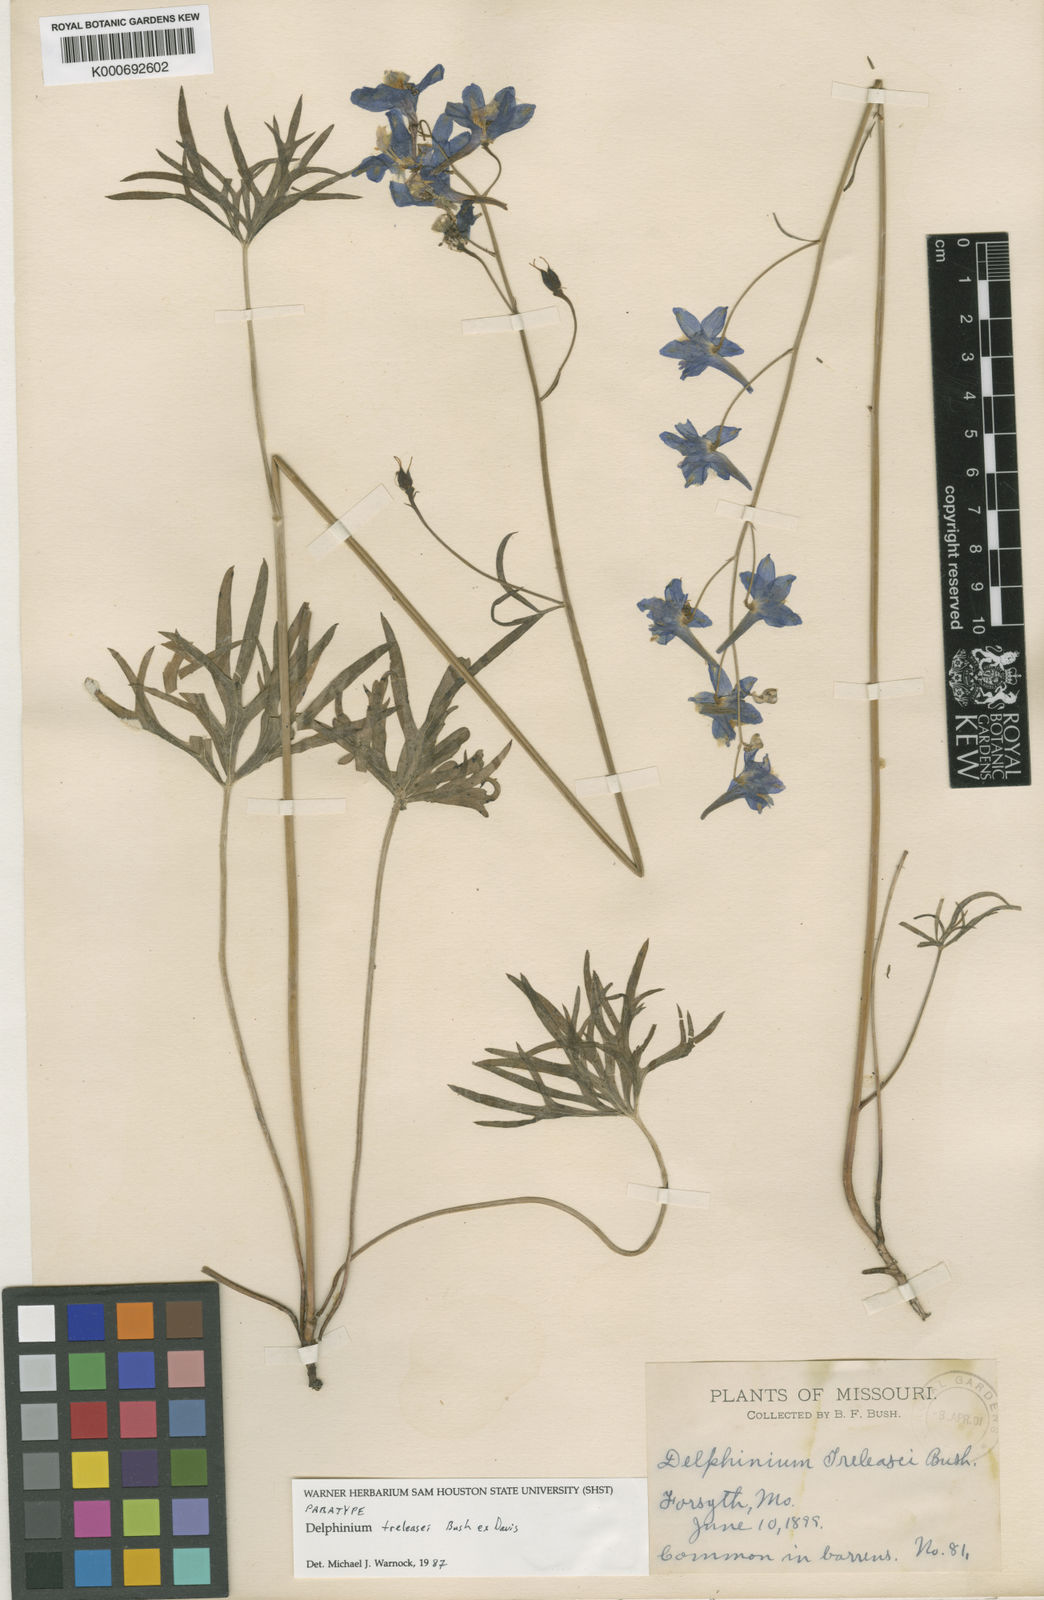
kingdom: Plantae
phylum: Tracheophyta
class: Magnoliopsida
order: Ranunculales
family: Ranunculaceae
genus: Delphinium
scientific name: Delphinium
